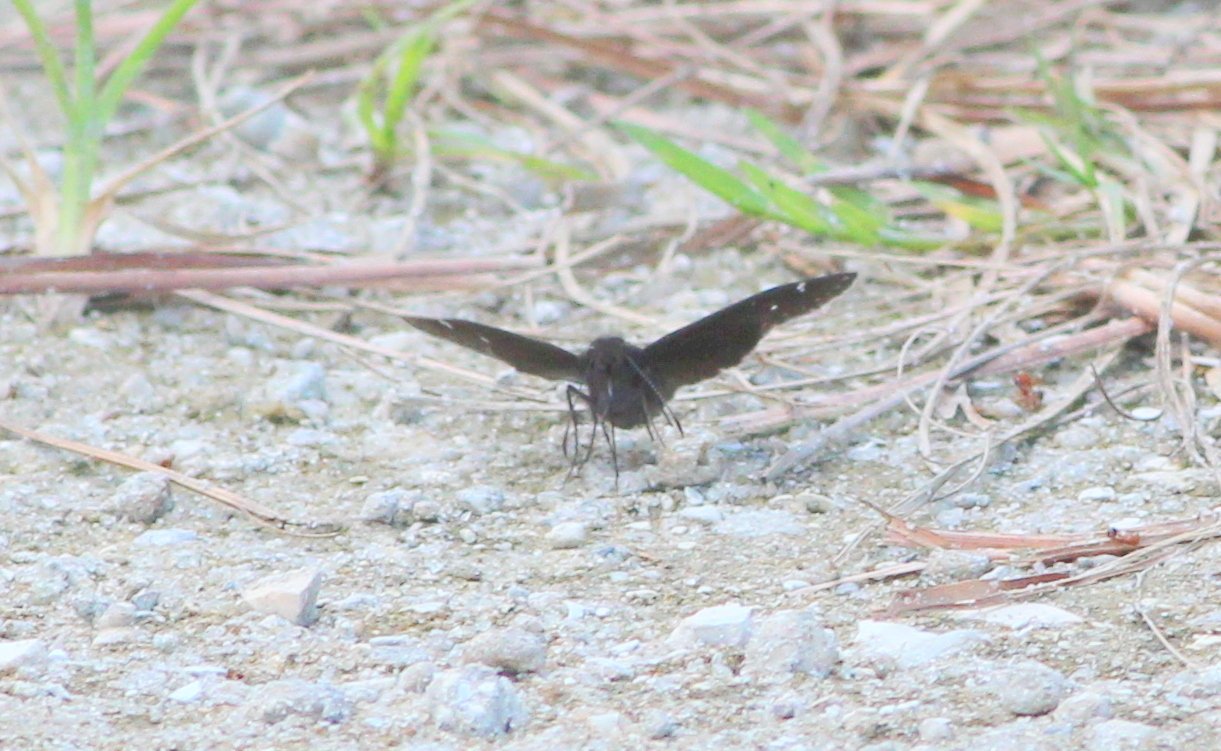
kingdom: Animalia
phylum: Arthropoda
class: Insecta
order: Lepidoptera
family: Hesperiidae
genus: Thorybes
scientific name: Thorybes mexicana
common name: Confused Cloudywing
